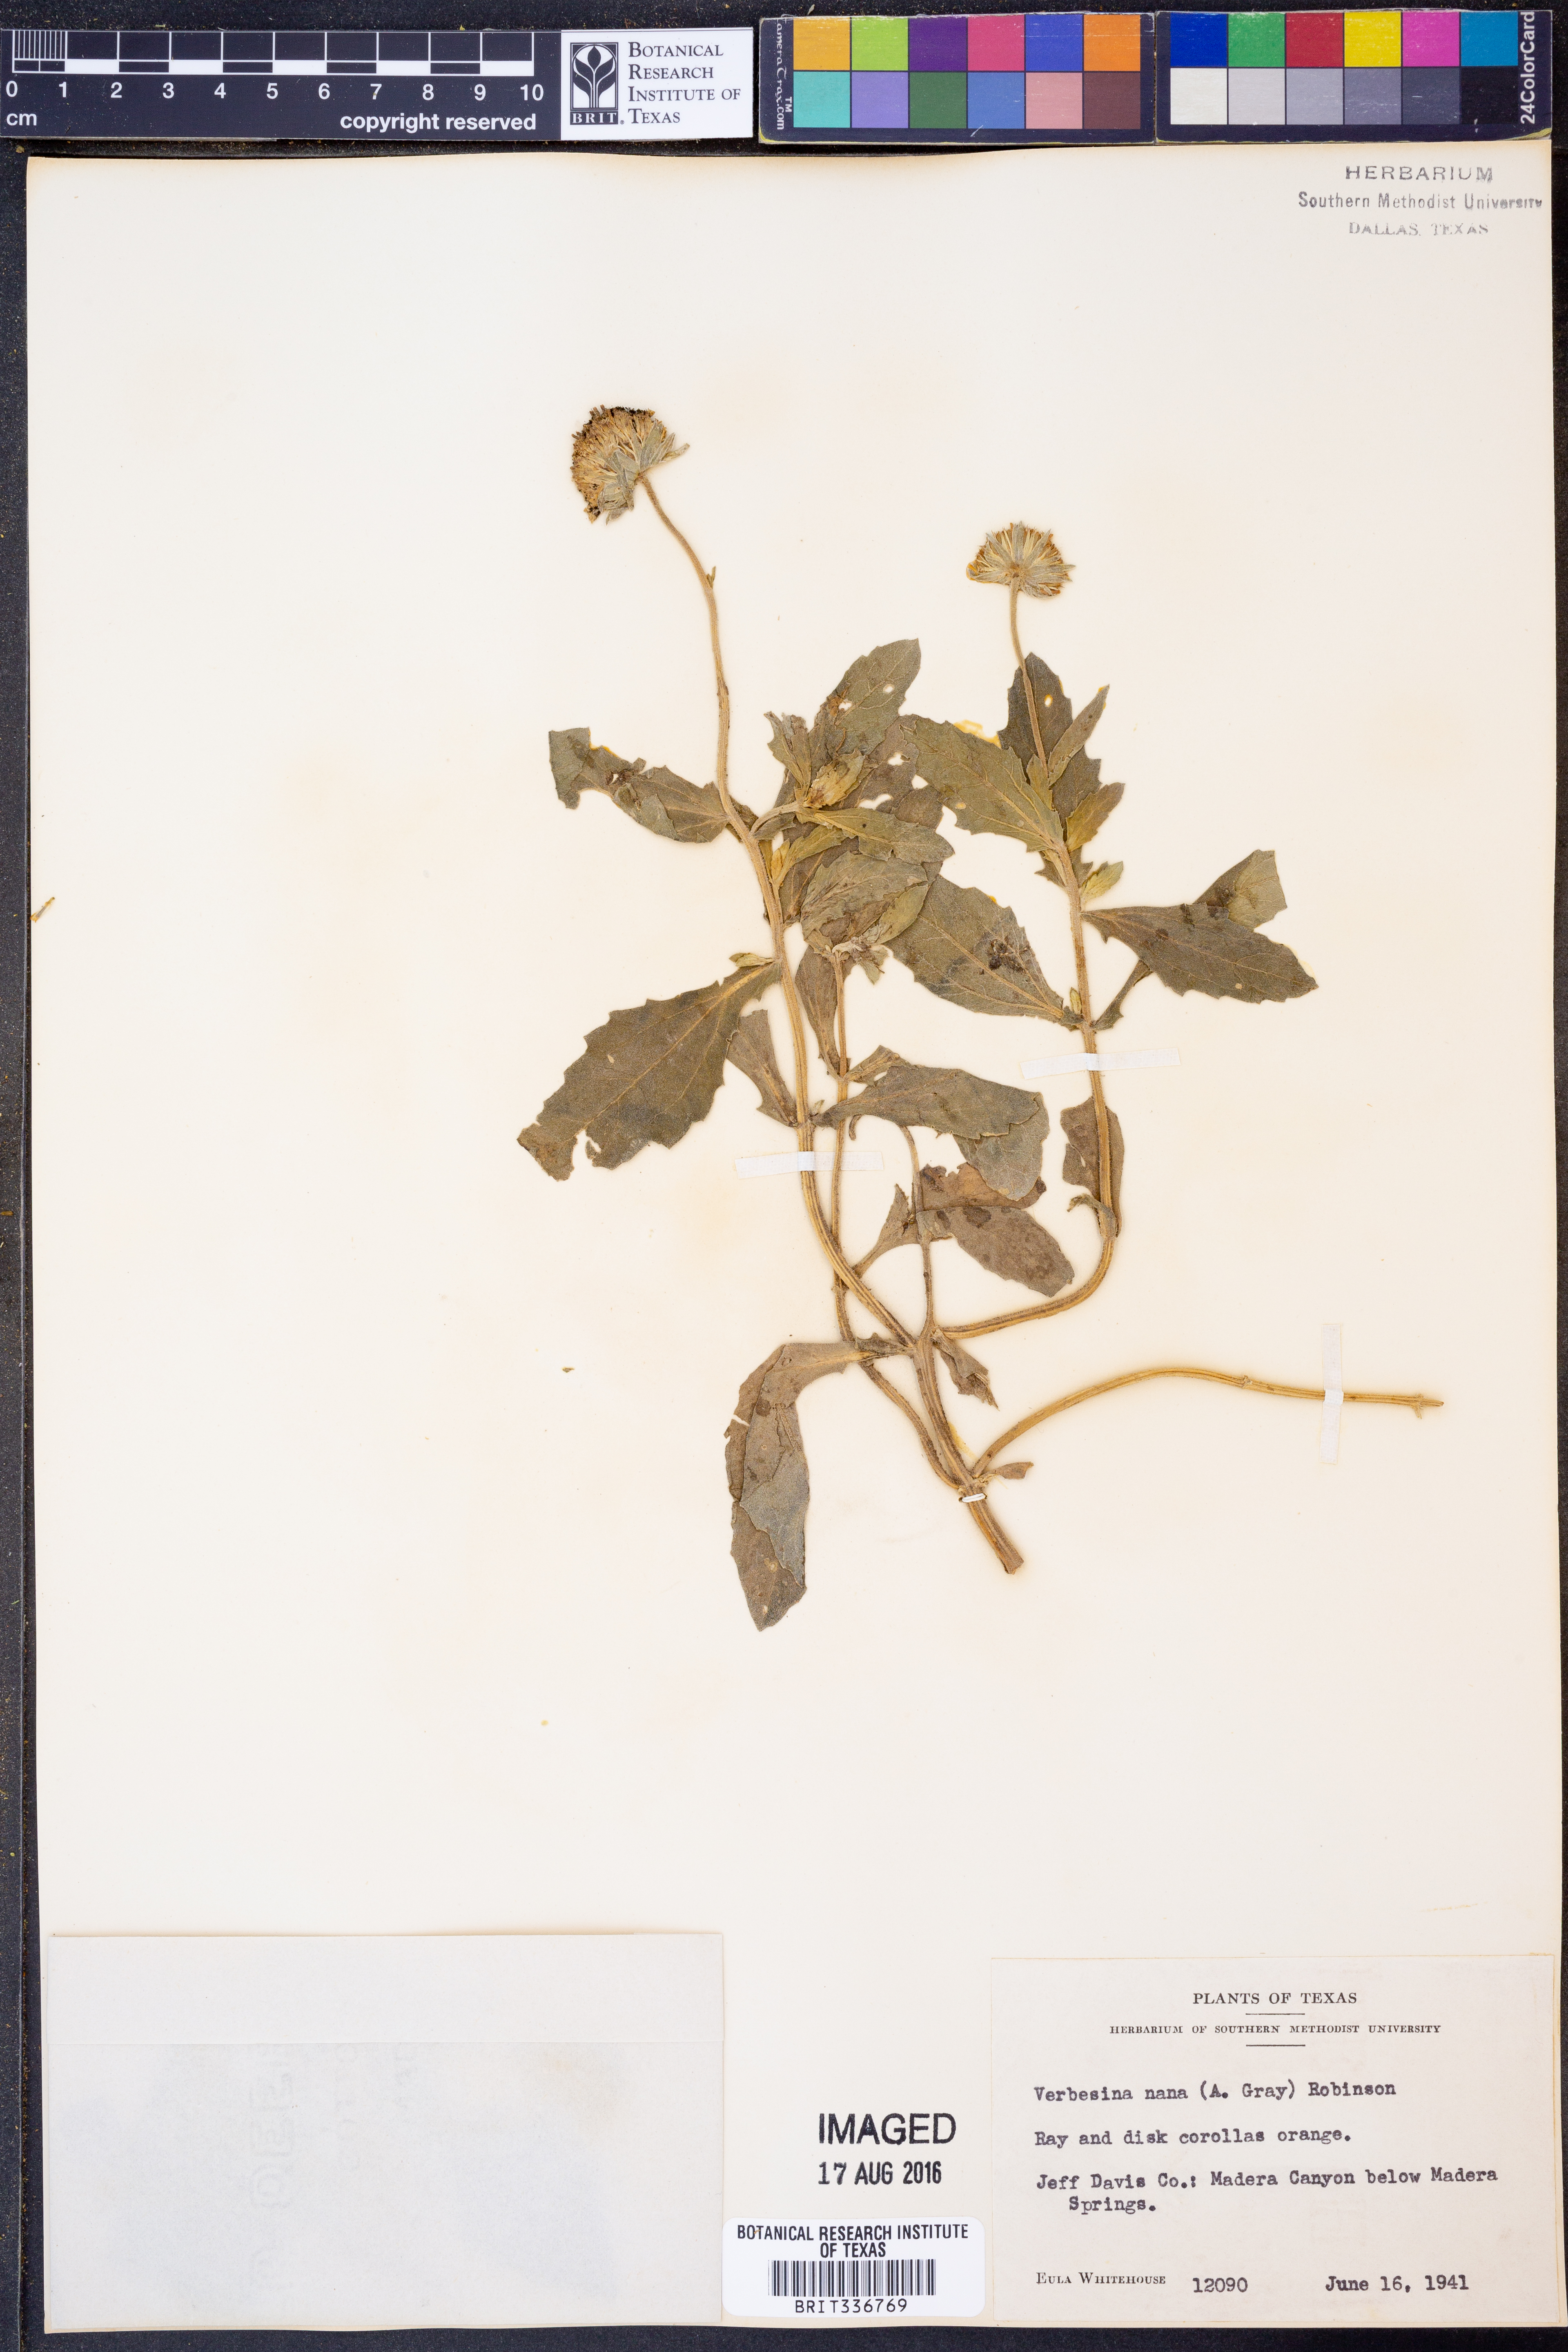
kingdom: Plantae
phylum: Tracheophyta
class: Magnoliopsida
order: Asterales
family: Asteraceae
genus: Verbesina
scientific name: Verbesina nana
